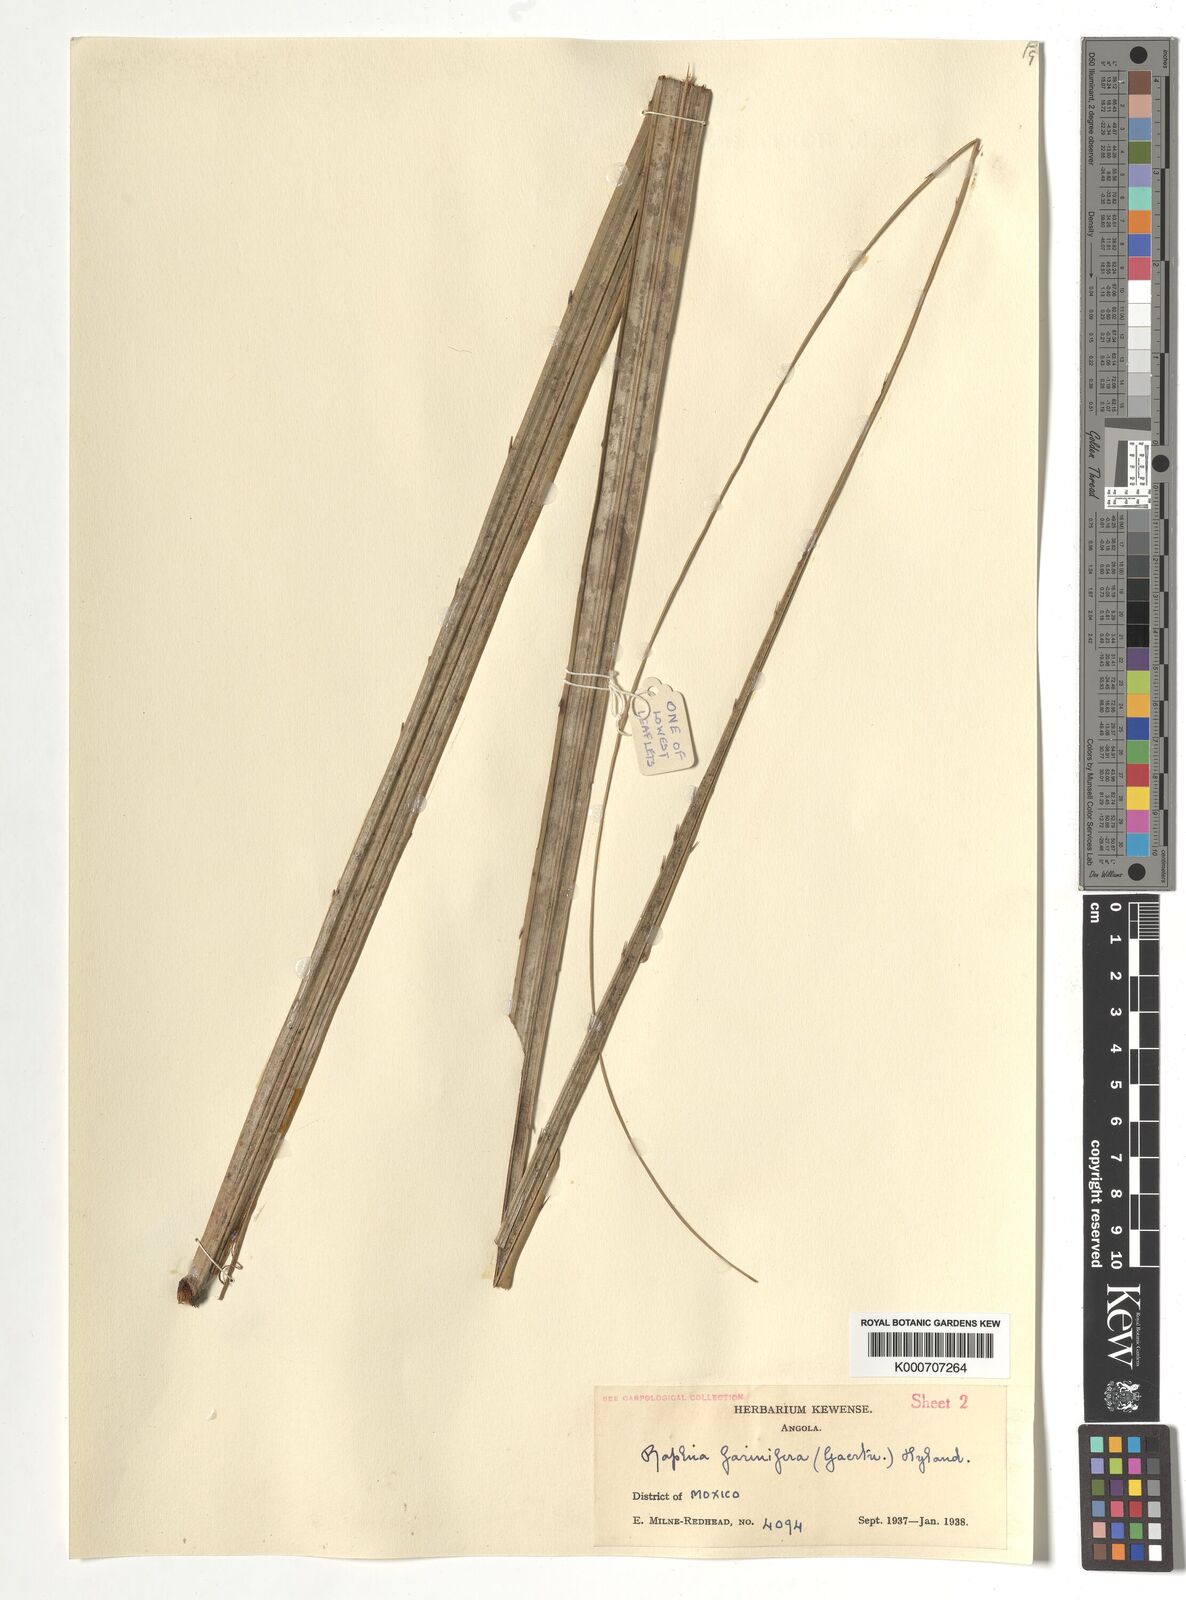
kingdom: Plantae
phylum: Tracheophyta
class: Liliopsida
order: Arecales
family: Arecaceae
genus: Raphia
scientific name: Raphia farinifera
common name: Raphia palm
